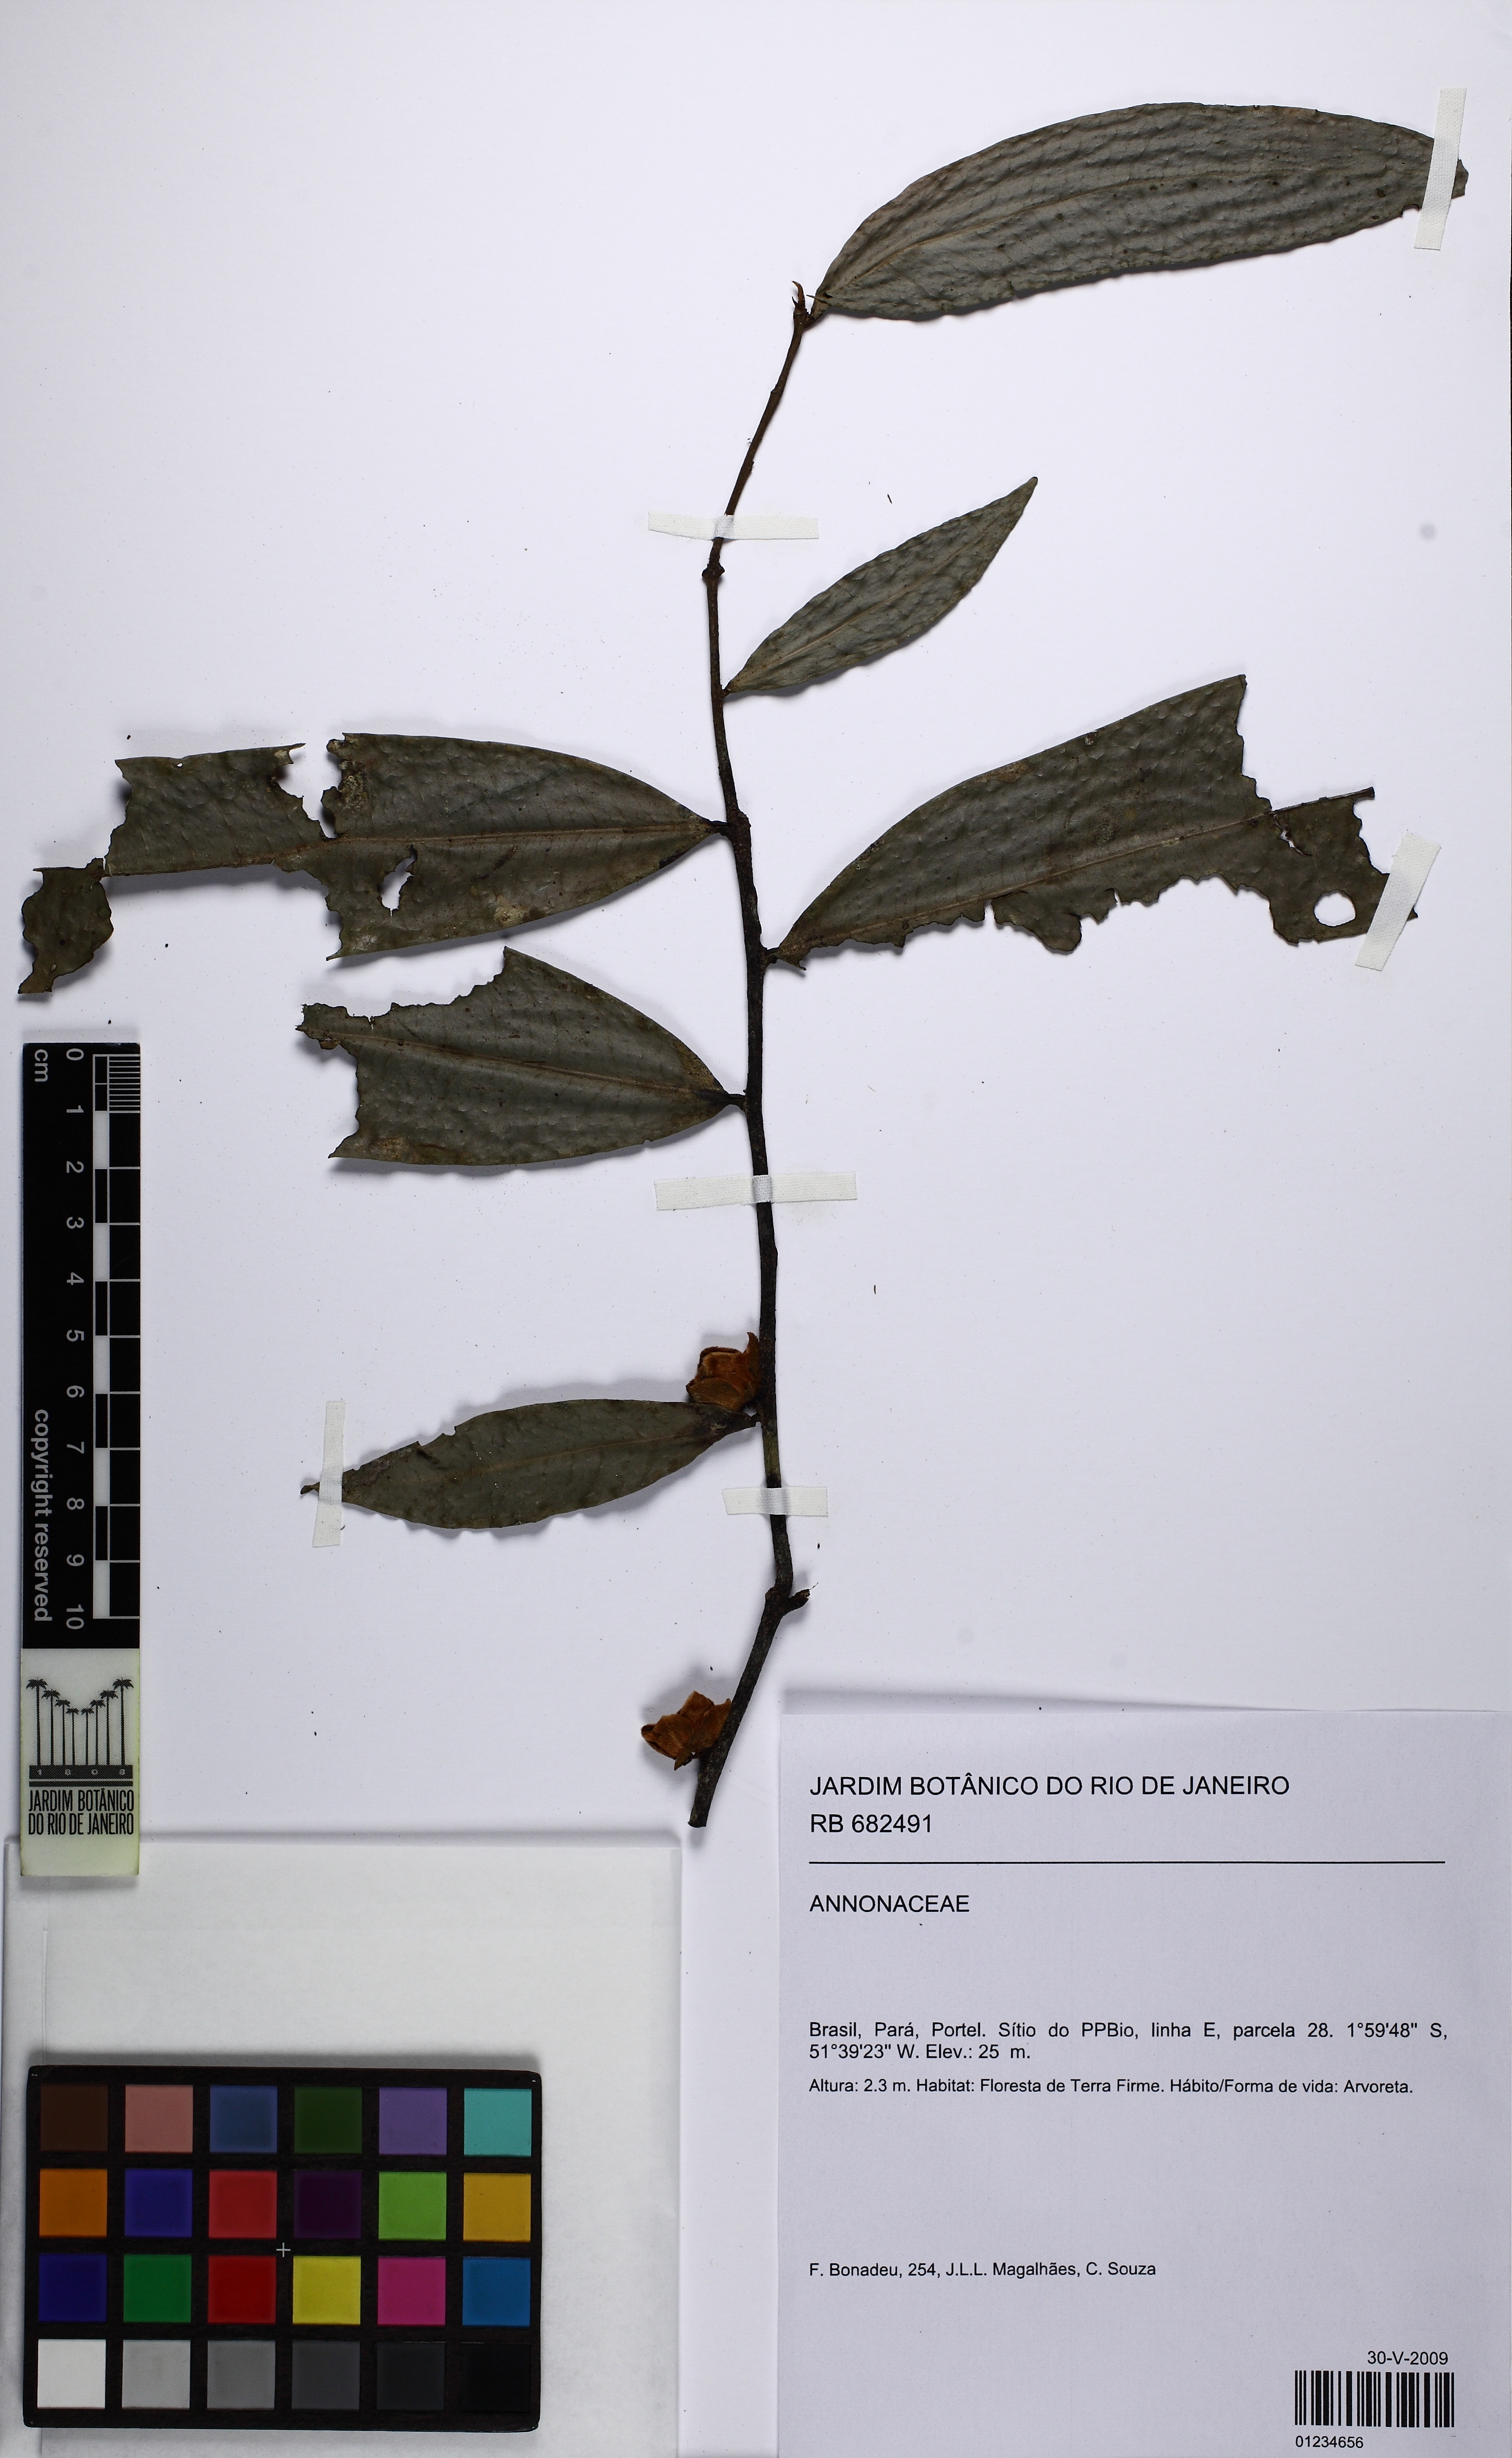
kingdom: Plantae
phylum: Tracheophyta
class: Magnoliopsida
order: Magnoliales
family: Annonaceae
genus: Guatteria
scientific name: Guatteria
